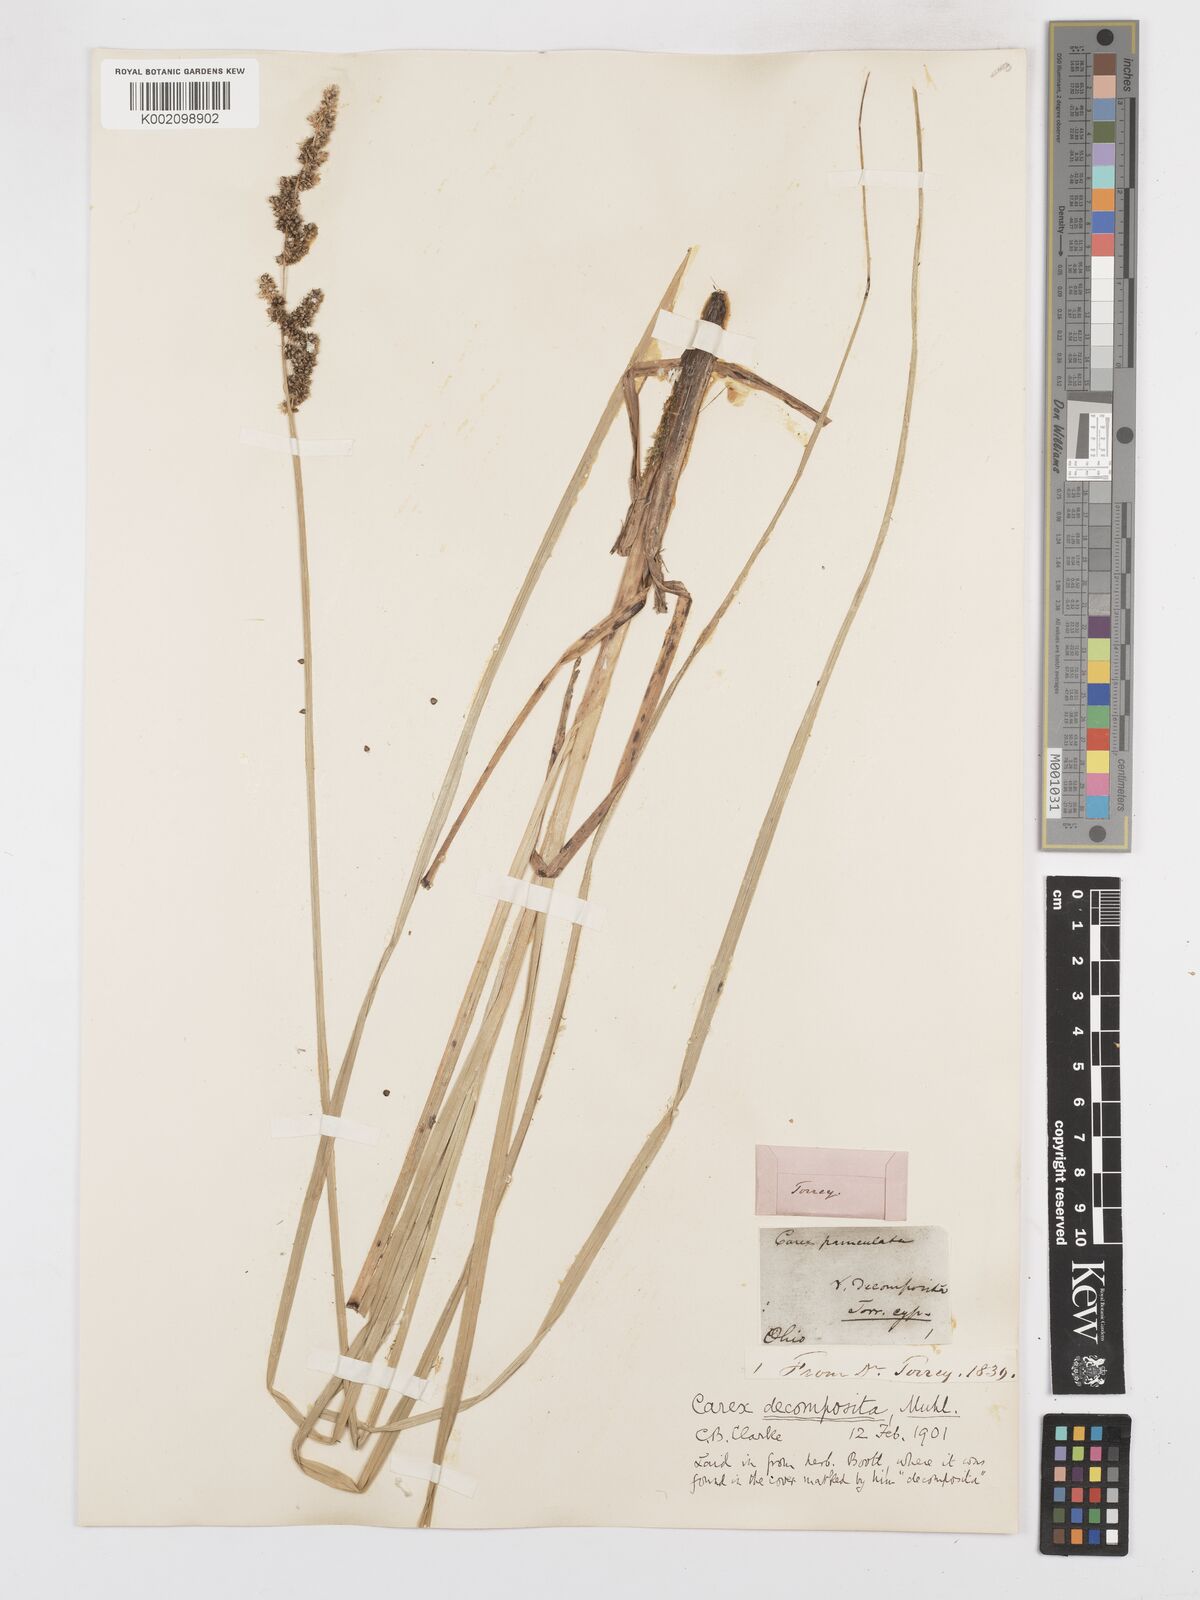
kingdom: Plantae
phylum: Tracheophyta
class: Liliopsida
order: Poales
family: Cyperaceae
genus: Carex
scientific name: Carex decomposita
